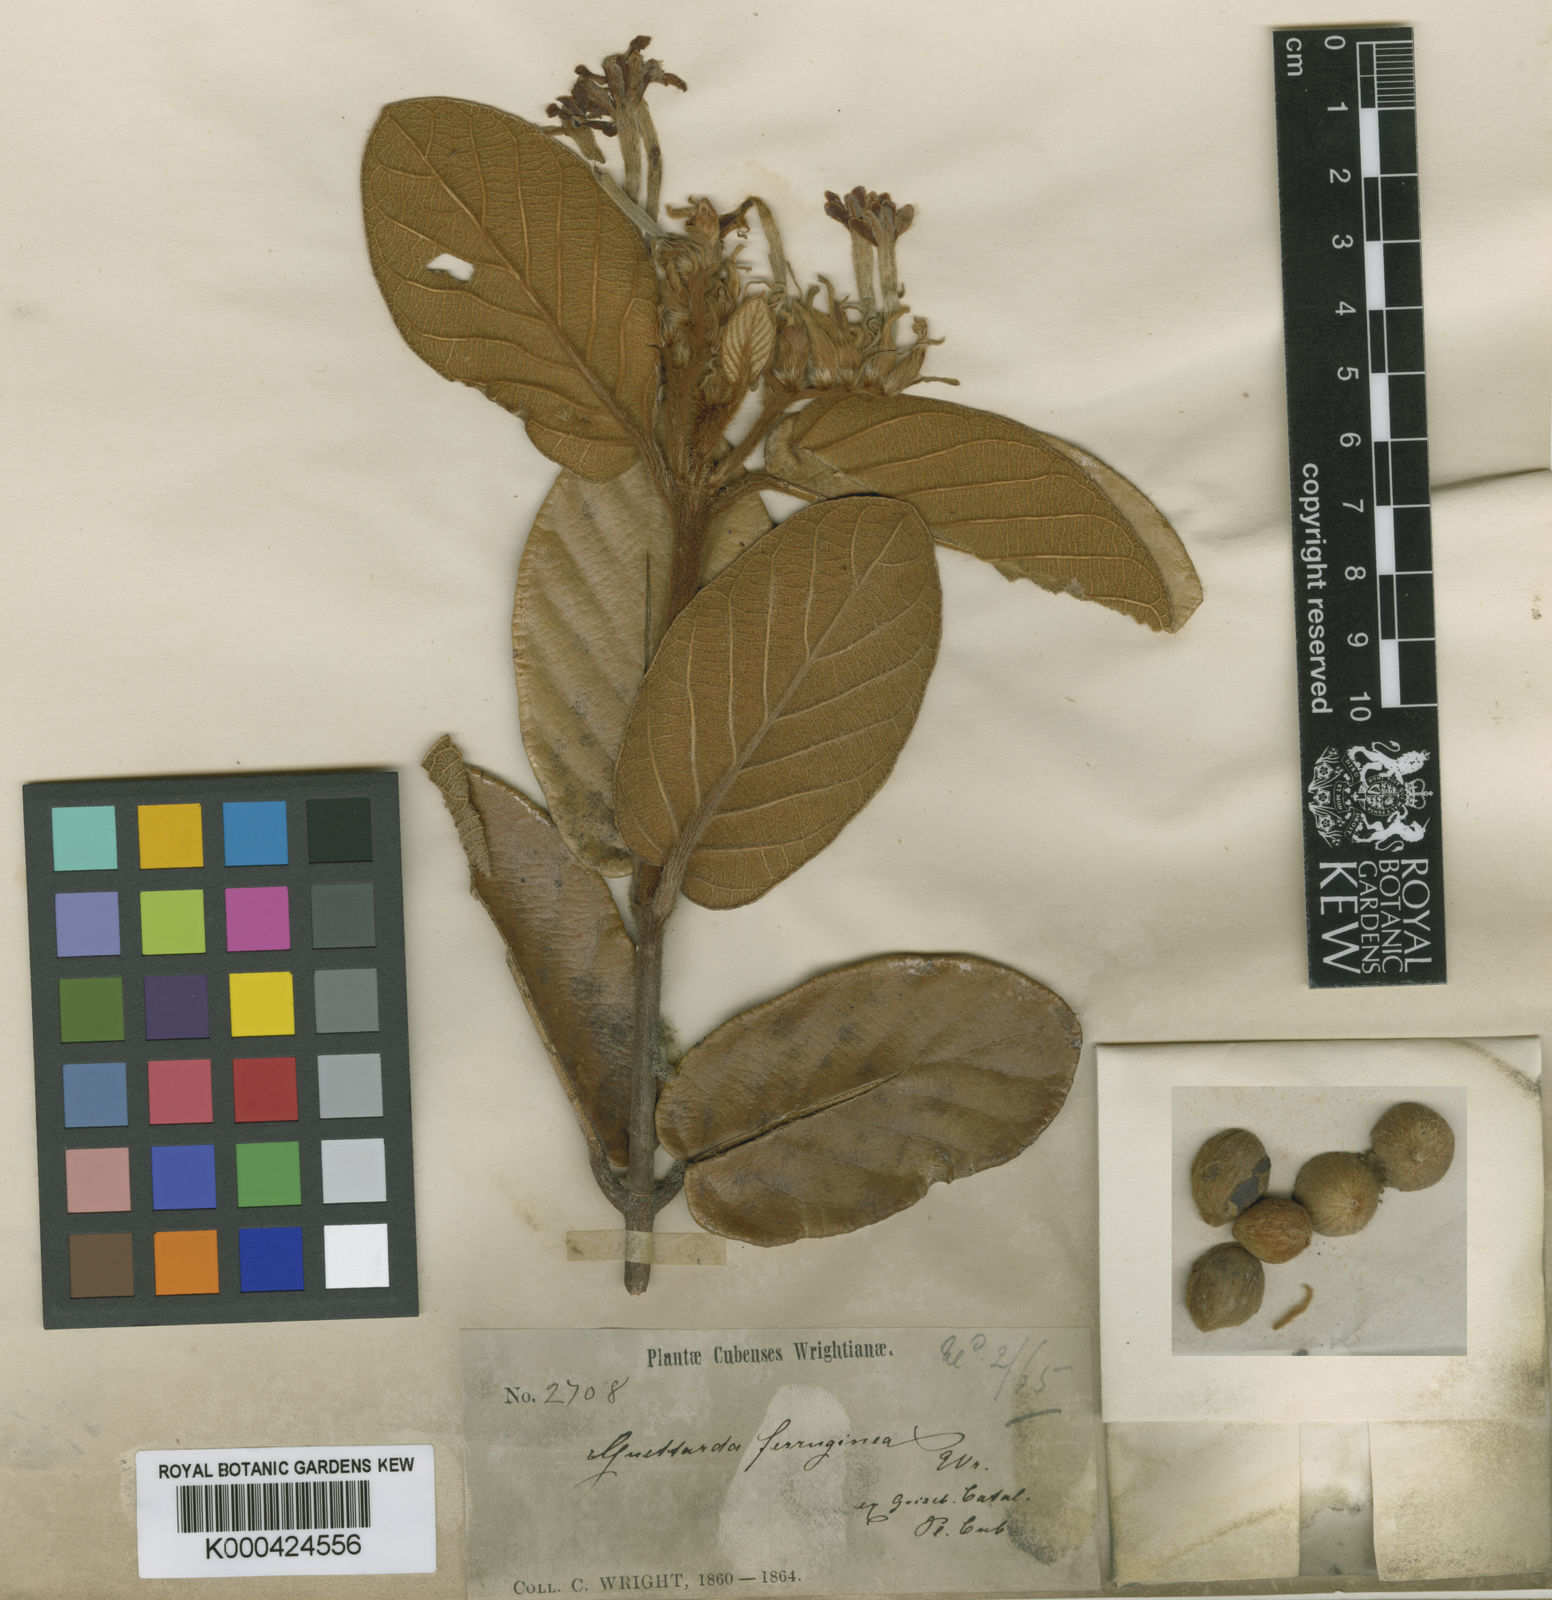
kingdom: Plantae
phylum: Tracheophyta
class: Magnoliopsida
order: Gentianales
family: Rubiaceae
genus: Guettarda
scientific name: Guettarda ferruginea
